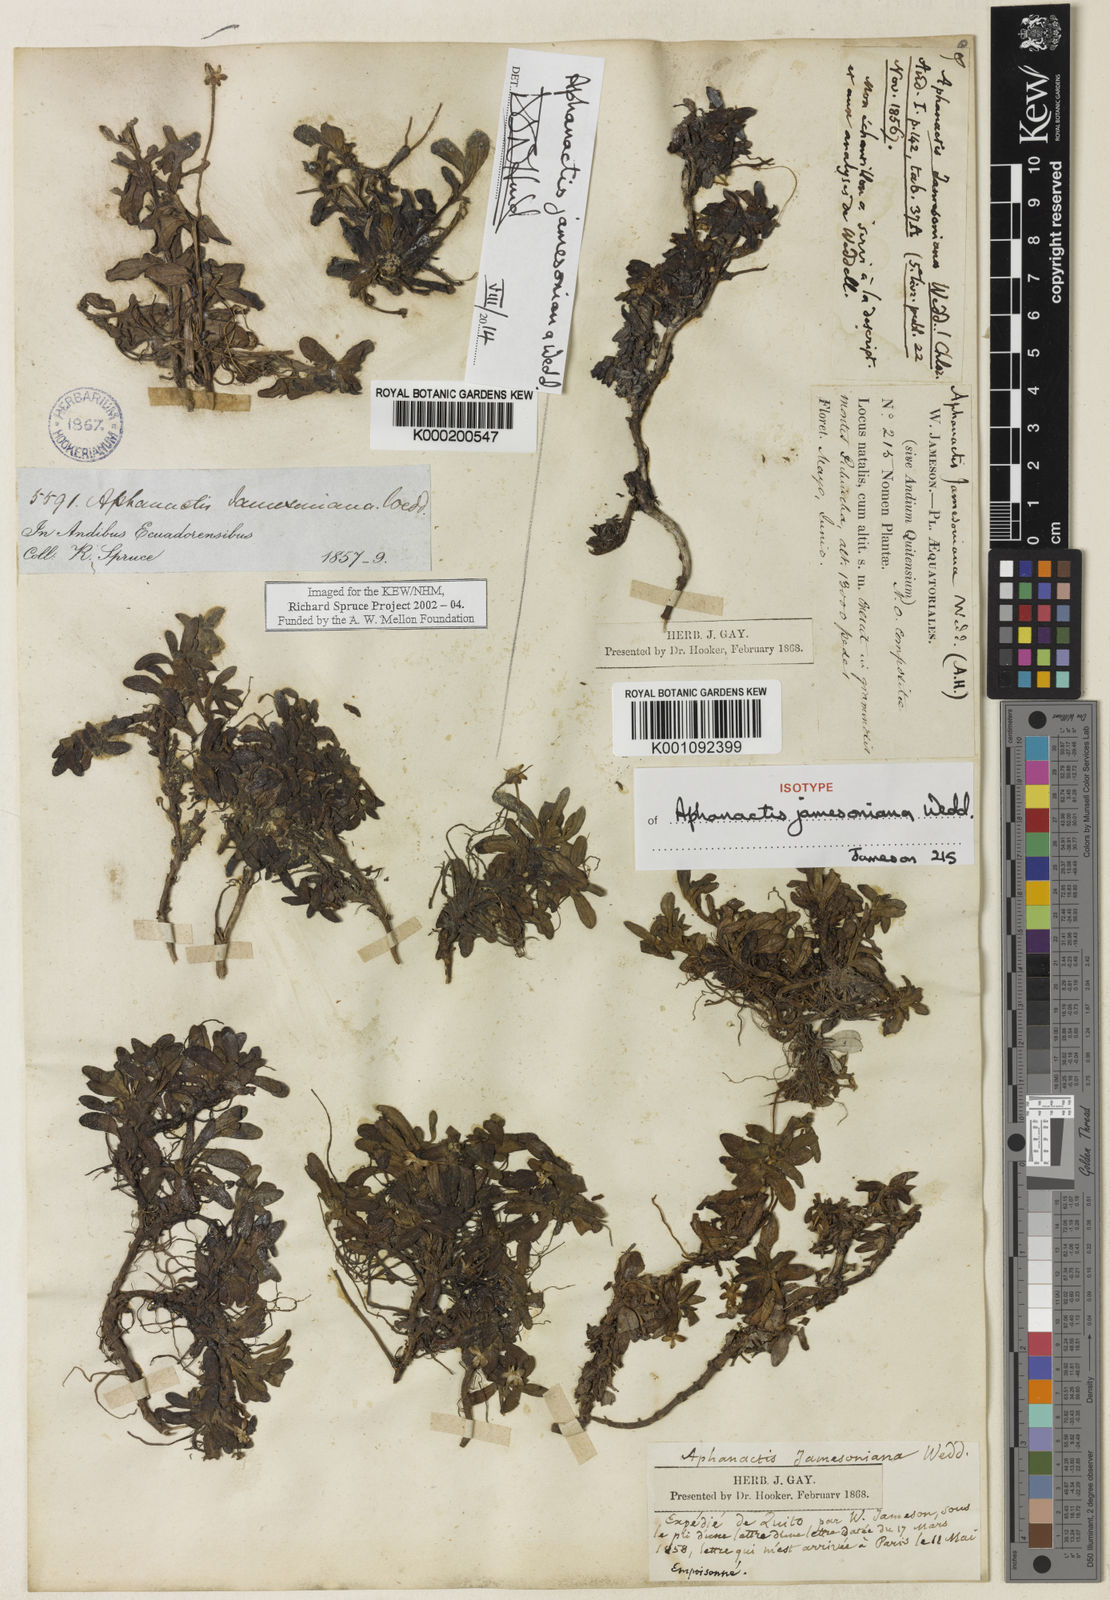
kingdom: Plantae
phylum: Tracheophyta
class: Magnoliopsida
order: Asterales
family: Asteraceae
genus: Aphanactis
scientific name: Aphanactis jamesoniana
